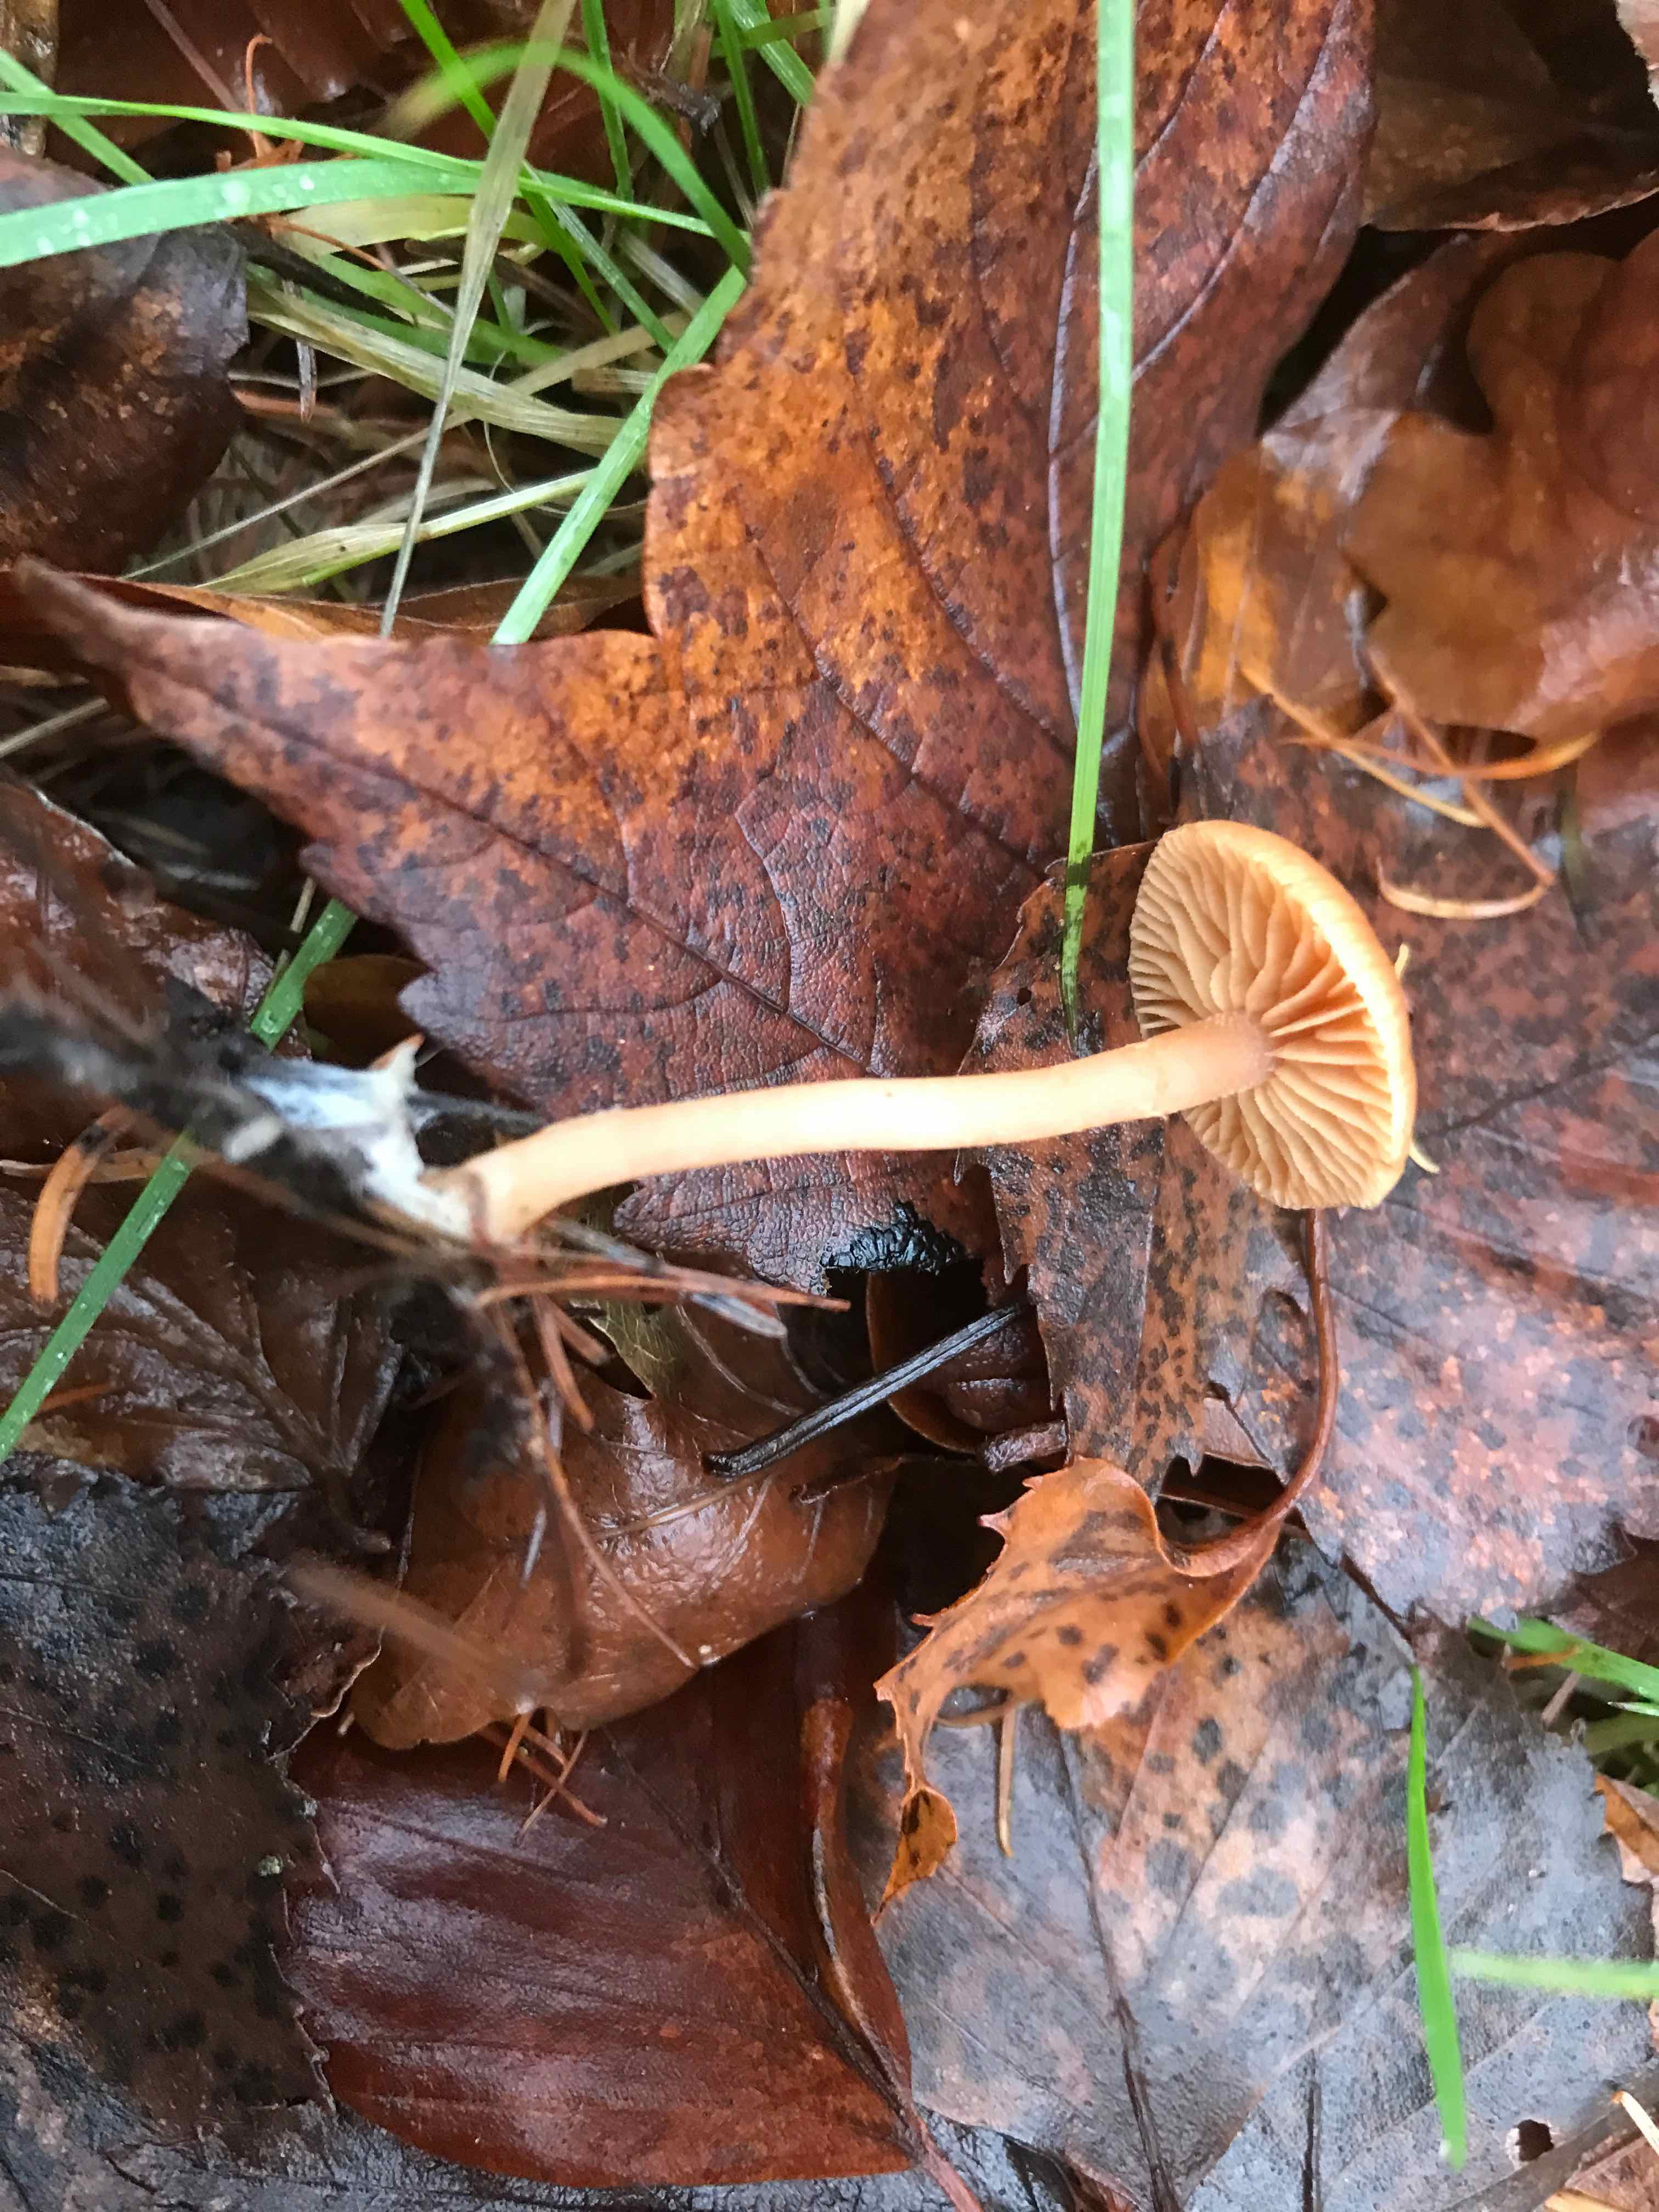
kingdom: Fungi
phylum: Basidiomycota
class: Agaricomycetes
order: Agaricales
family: Tubariaceae
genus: Tubaria
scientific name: Tubaria furfuracea
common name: kliddet fnughat
